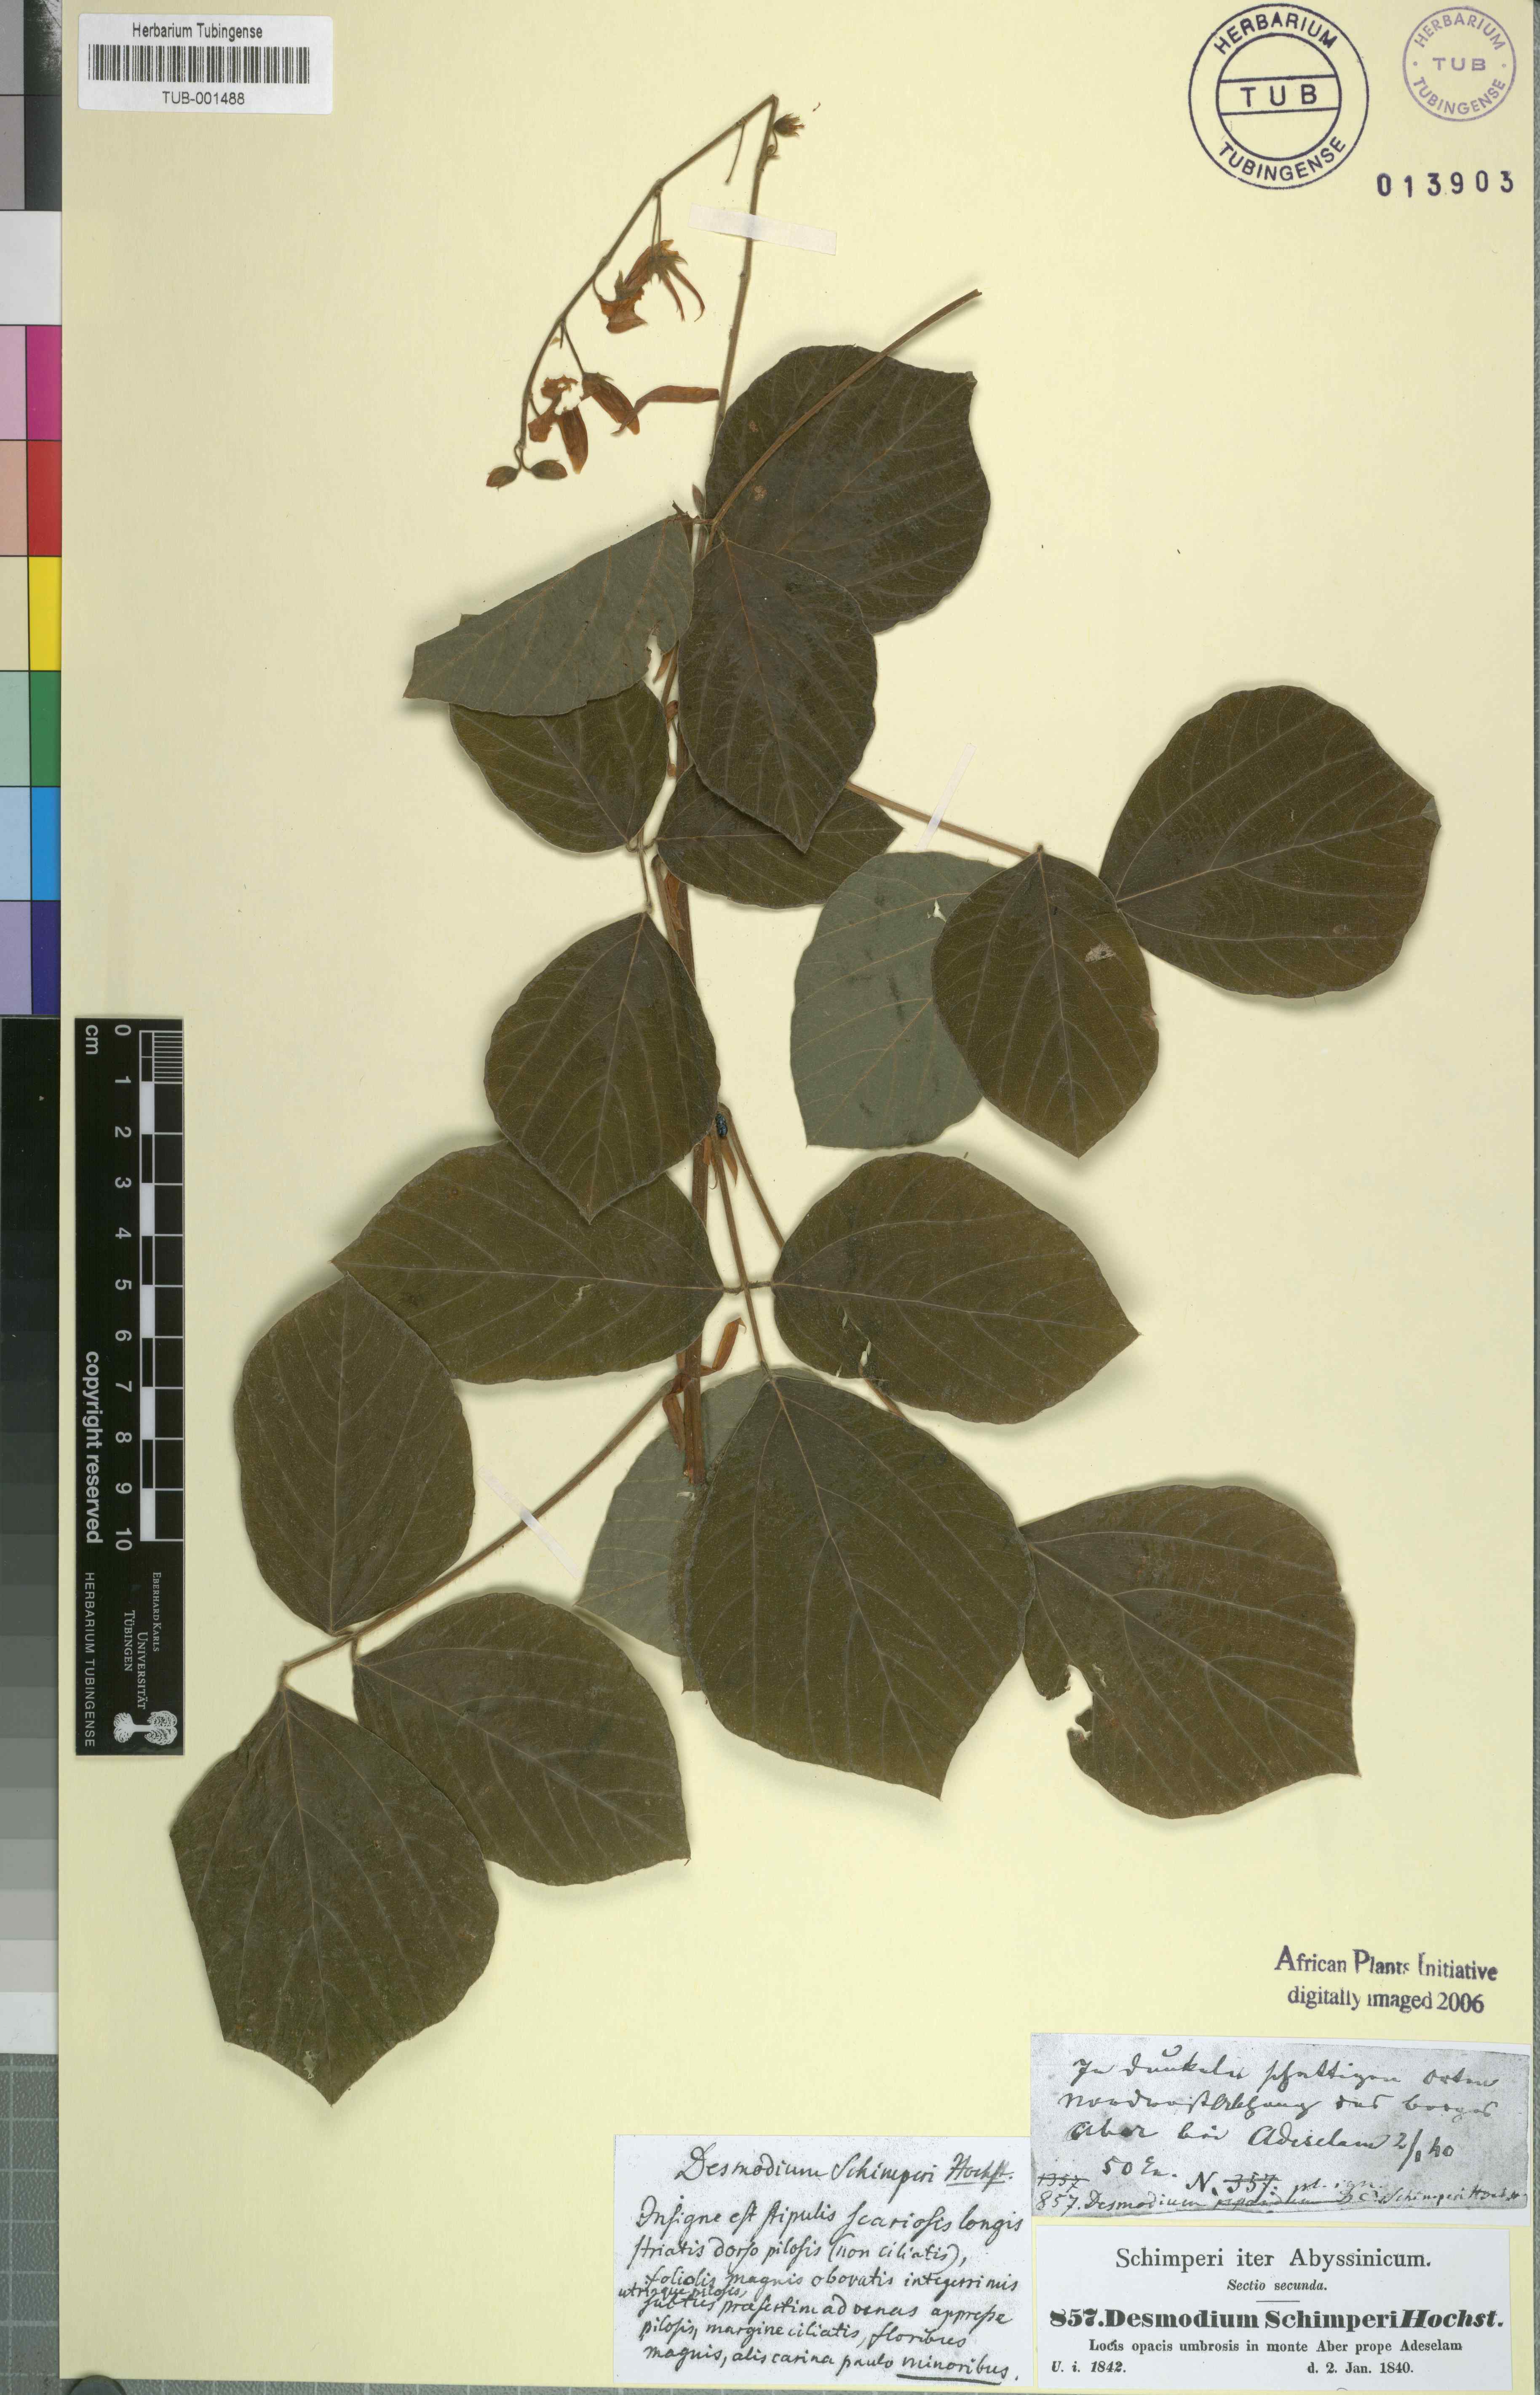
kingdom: Plantae
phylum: Tracheophyta
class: Magnoliopsida
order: Fabales
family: Fabaceae
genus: Hylodesmum
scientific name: Hylodesmum repandum
